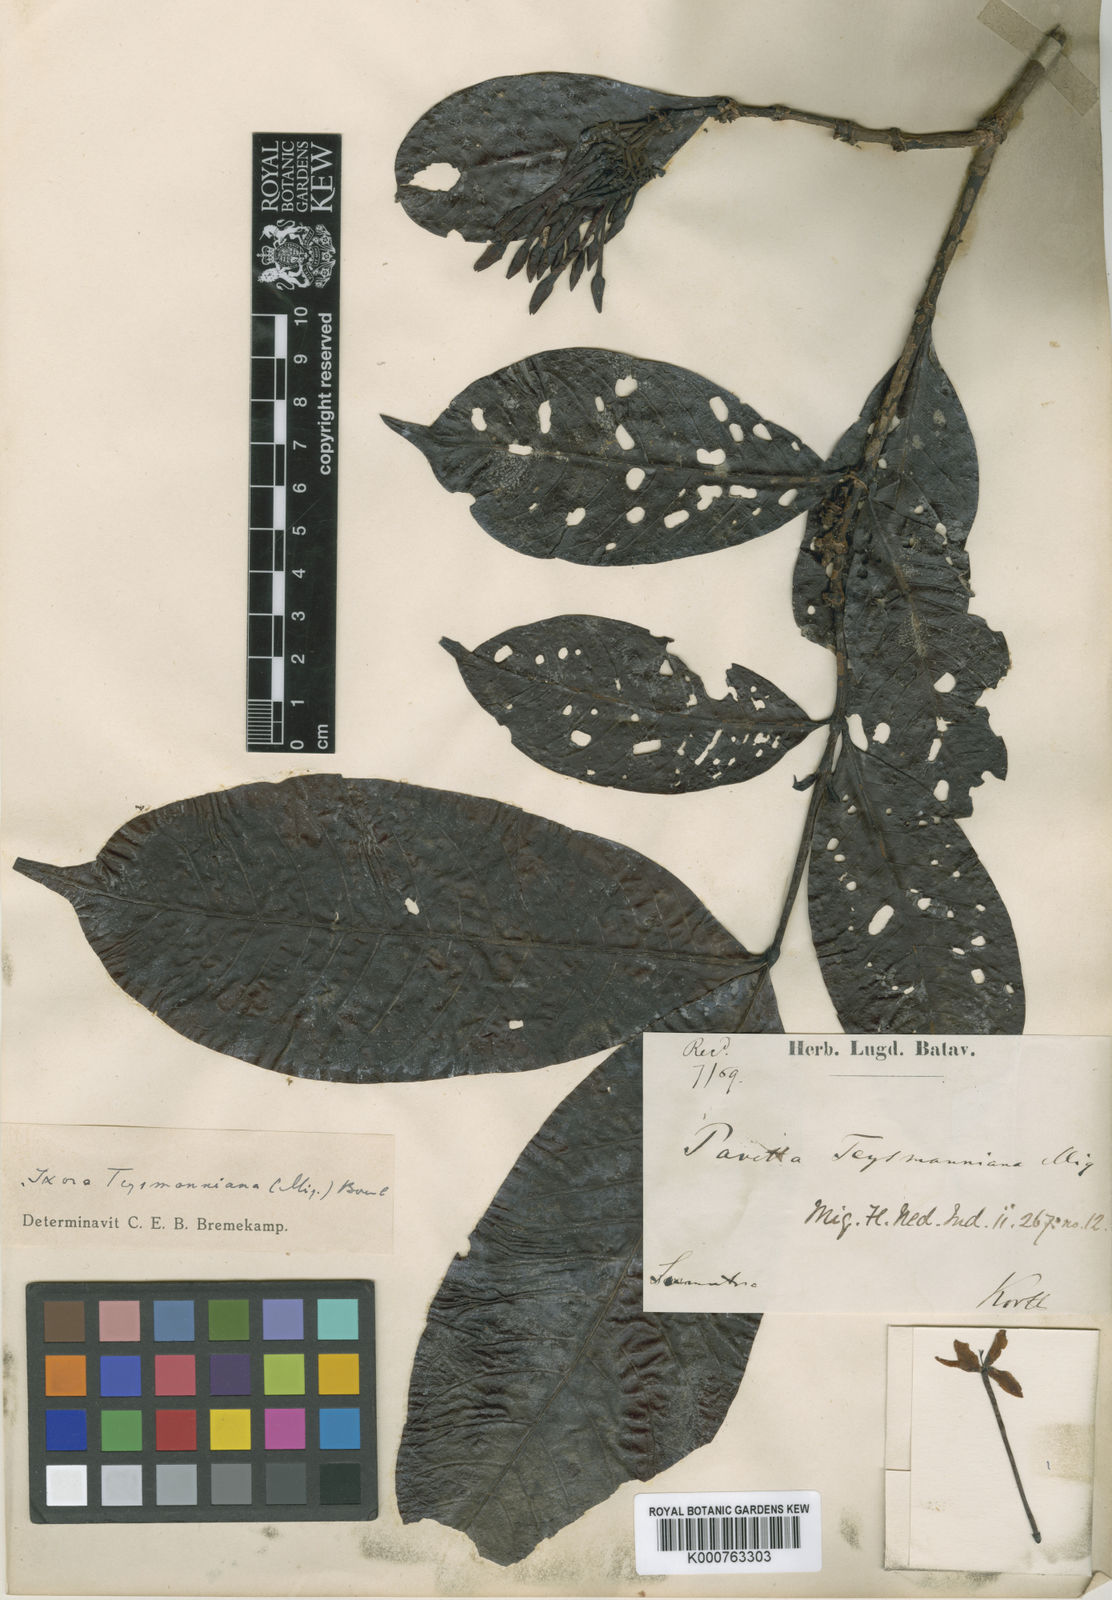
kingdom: Plantae
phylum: Tracheophyta
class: Magnoliopsida
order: Gentianales
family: Rubiaceae
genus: Ixora
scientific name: Ixora grandifolia
